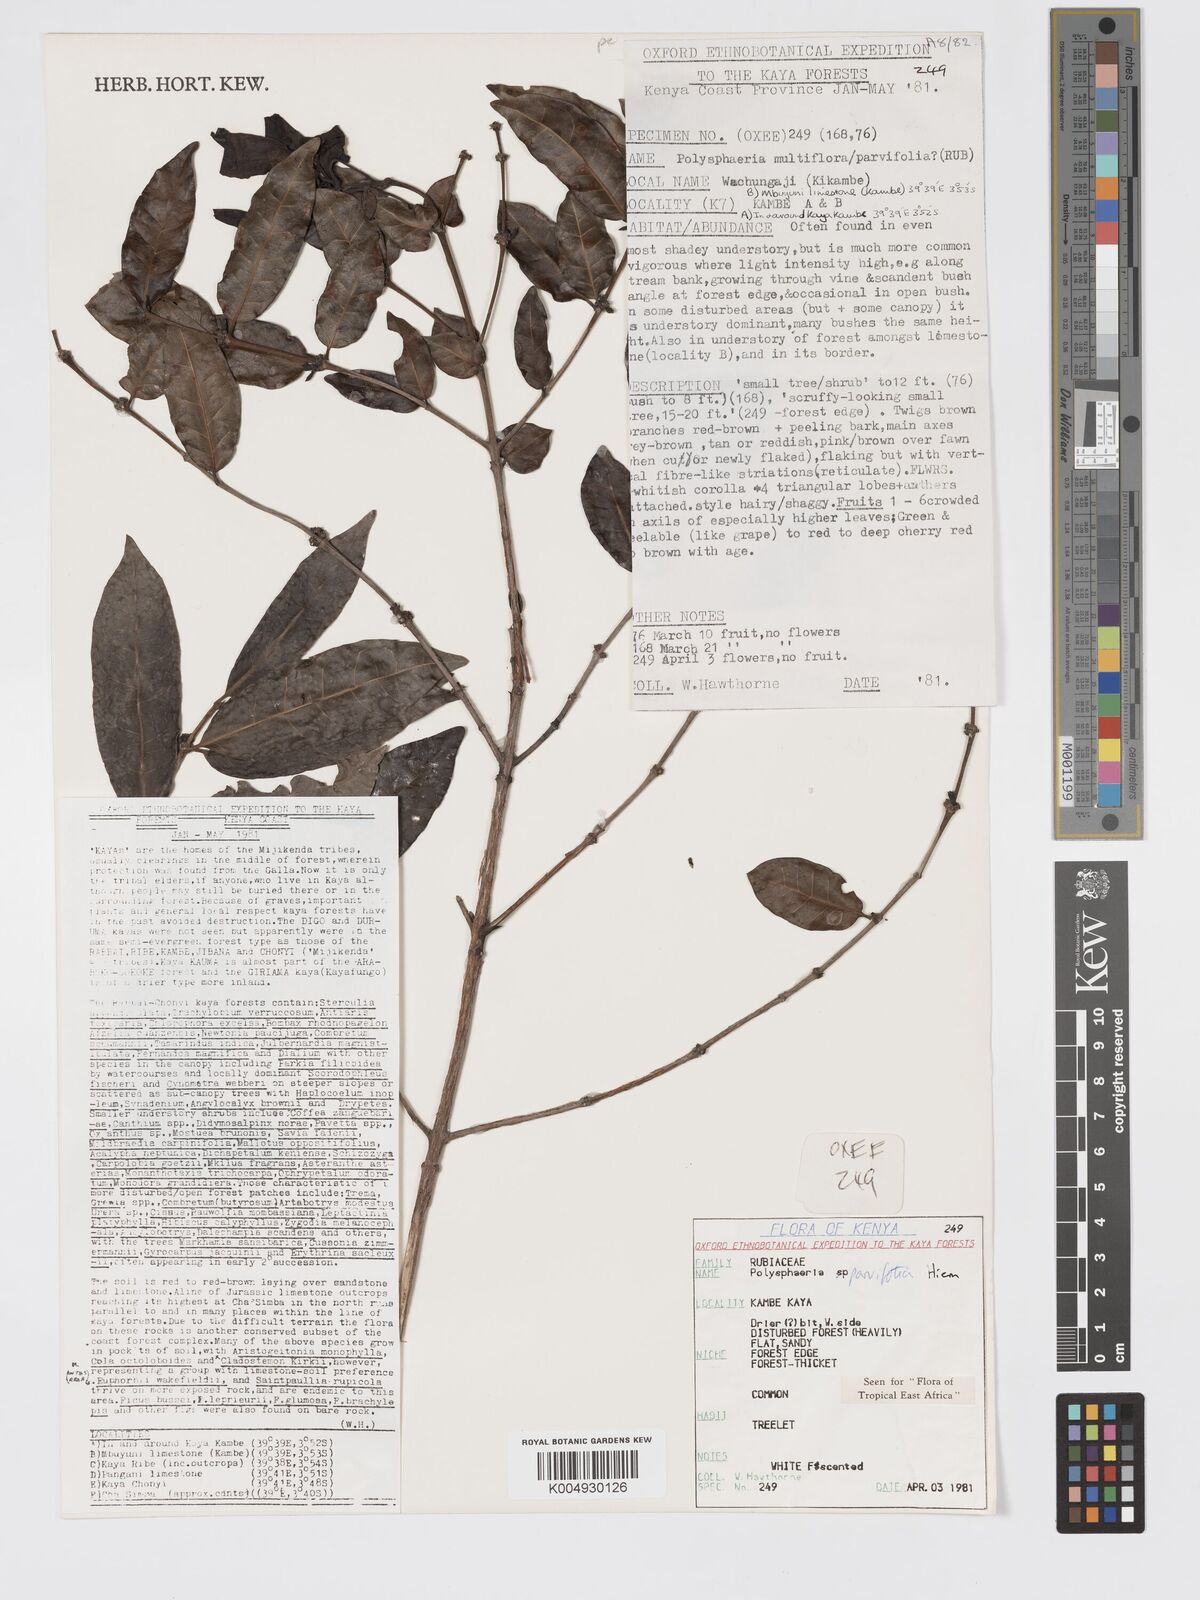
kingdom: Plantae
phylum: Tracheophyta
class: Magnoliopsida
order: Gentianales
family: Rubiaceae
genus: Polysphaeria
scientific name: Polysphaeria parvifolia
